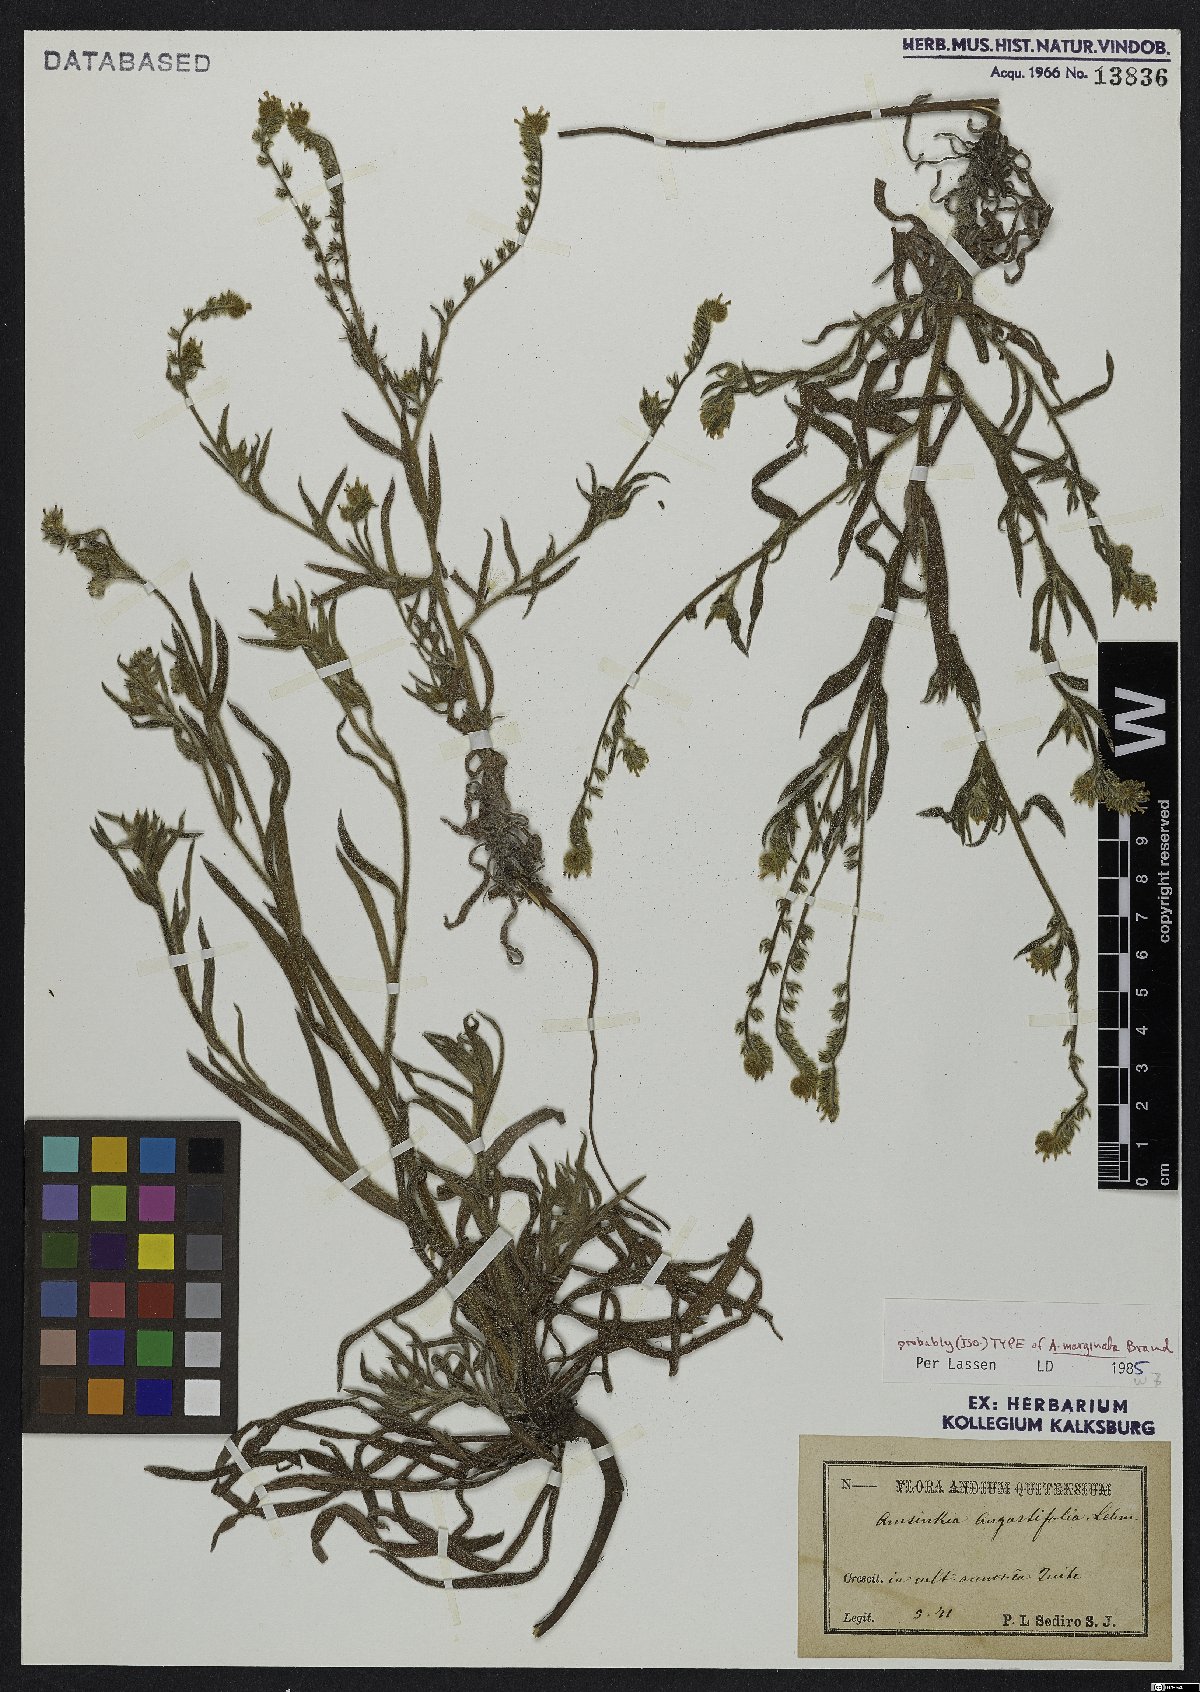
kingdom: Plantae
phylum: Tracheophyta
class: Magnoliopsida
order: Boraginales
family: Boraginaceae
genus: Amsinckia
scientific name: Amsinckia marginata
